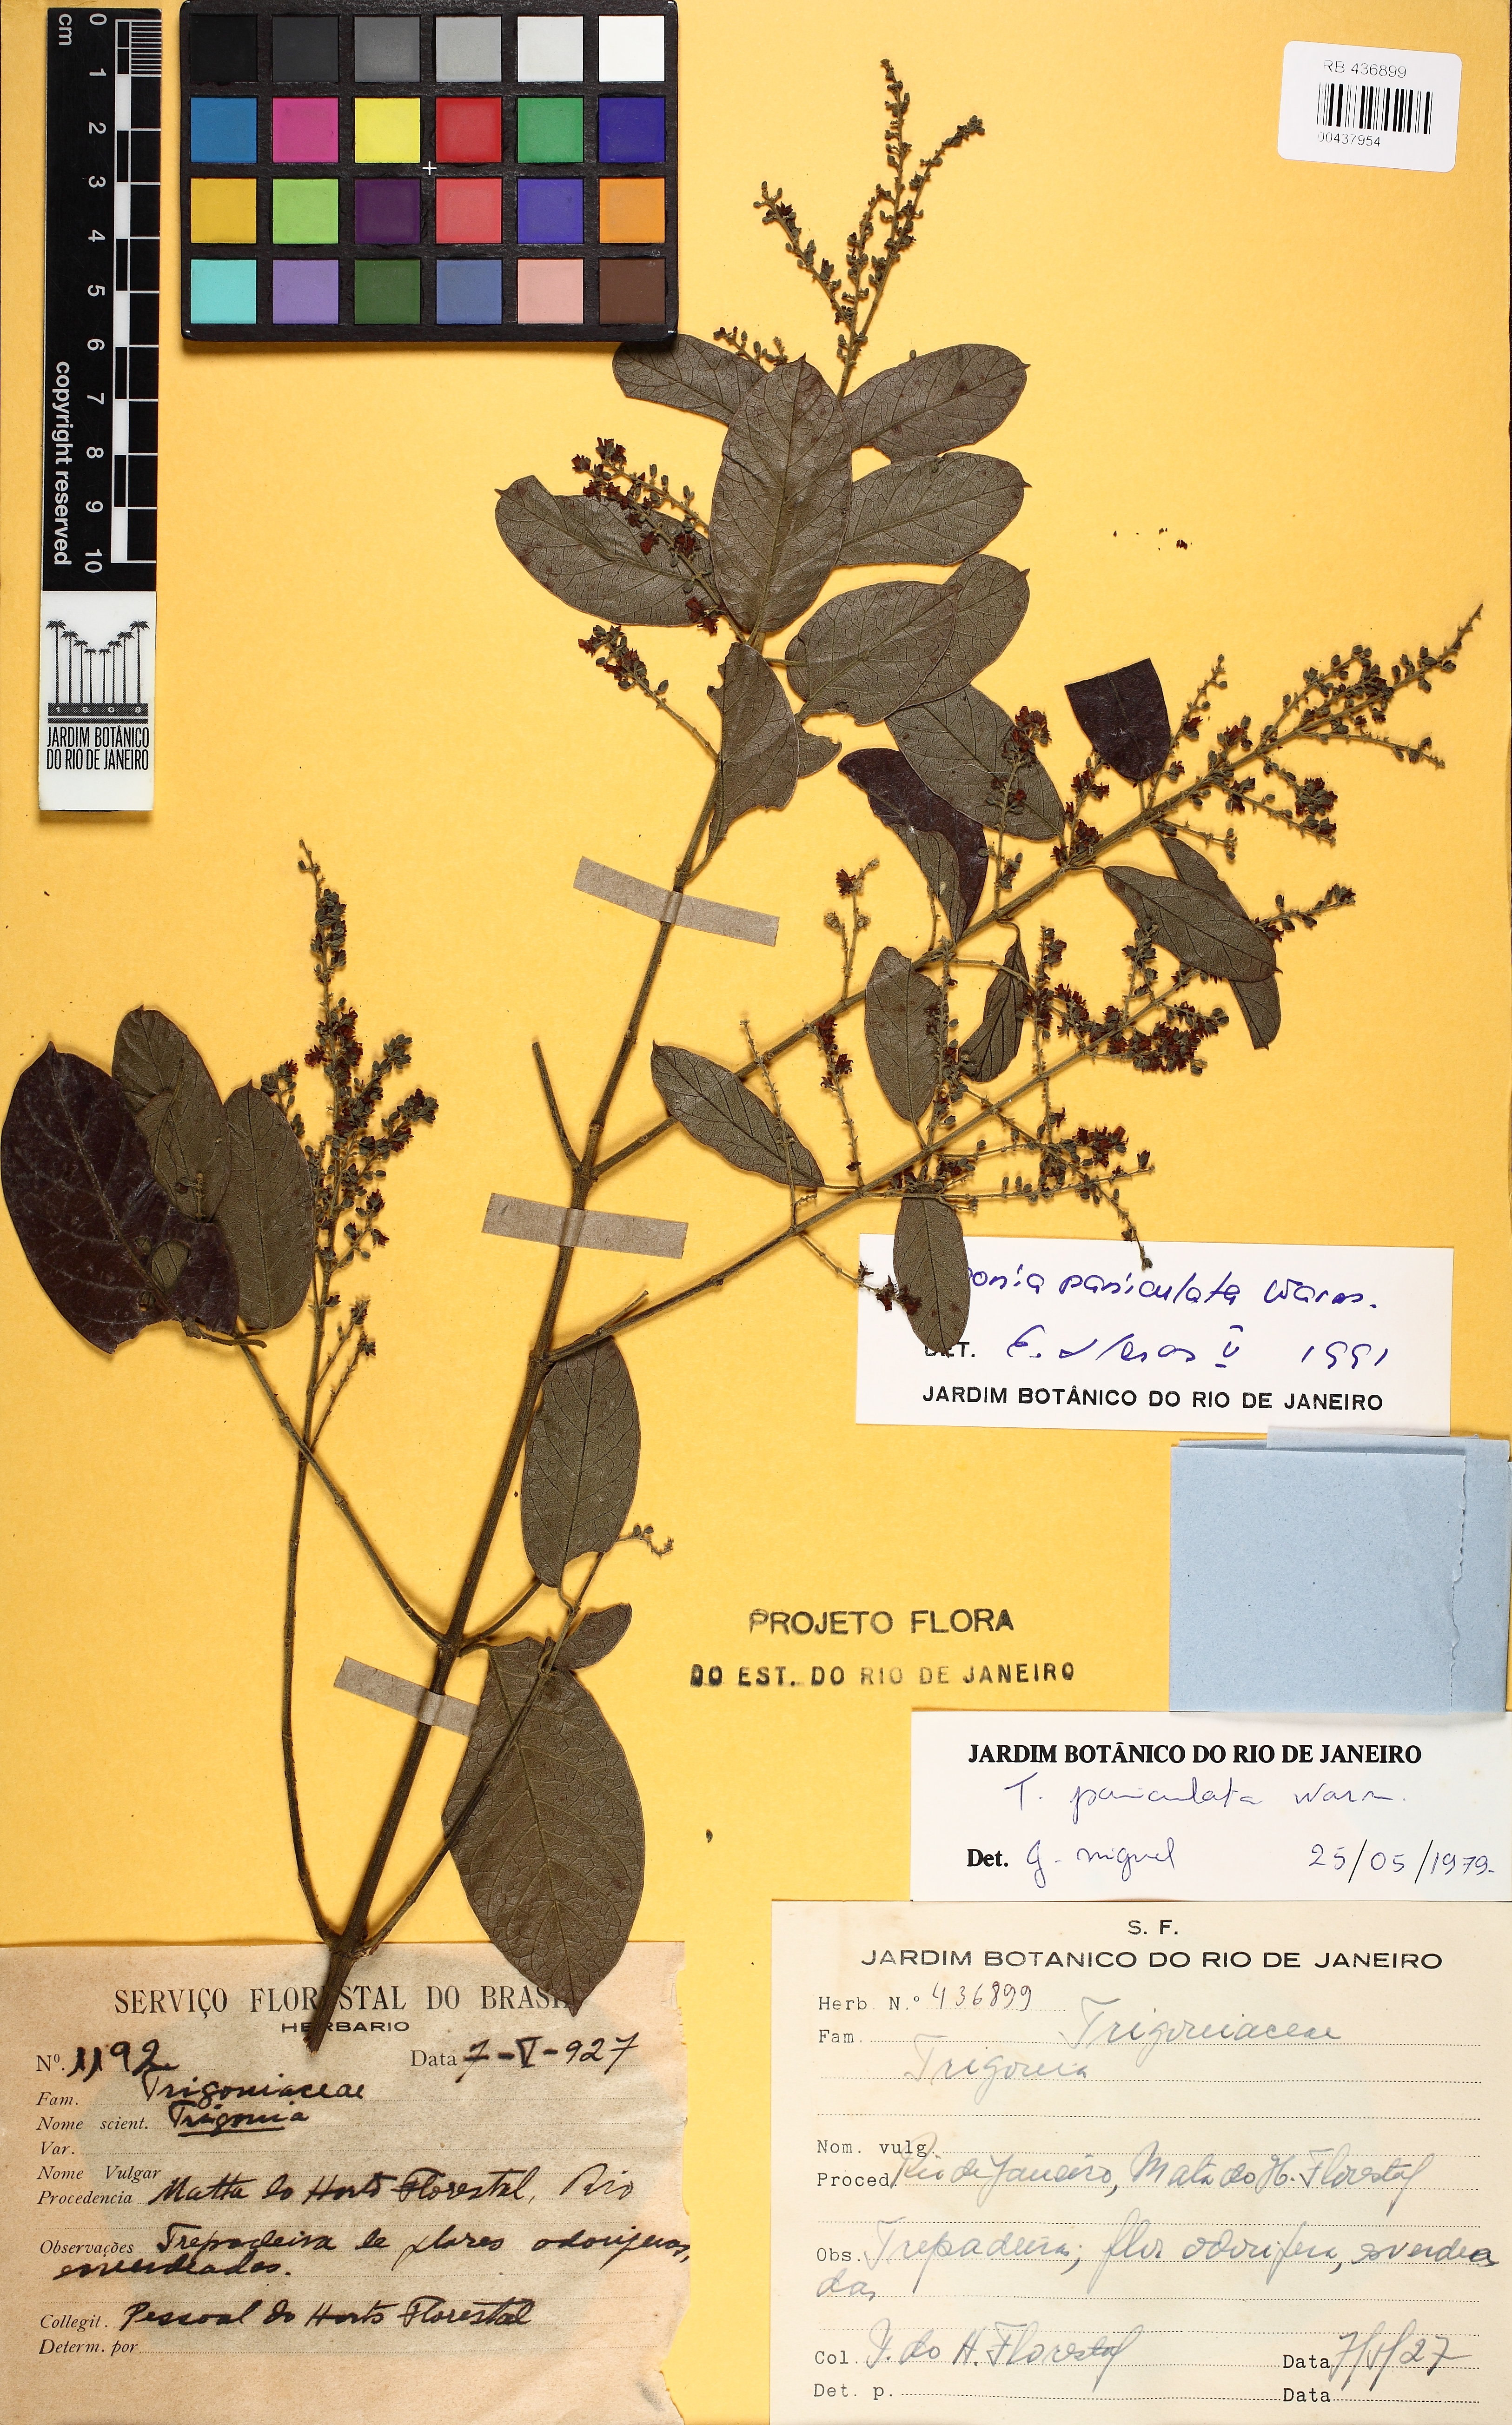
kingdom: Plantae
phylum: Tracheophyta
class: Magnoliopsida
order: Malpighiales
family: Trigoniaceae
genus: Trigonia
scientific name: Trigonia paniculata
